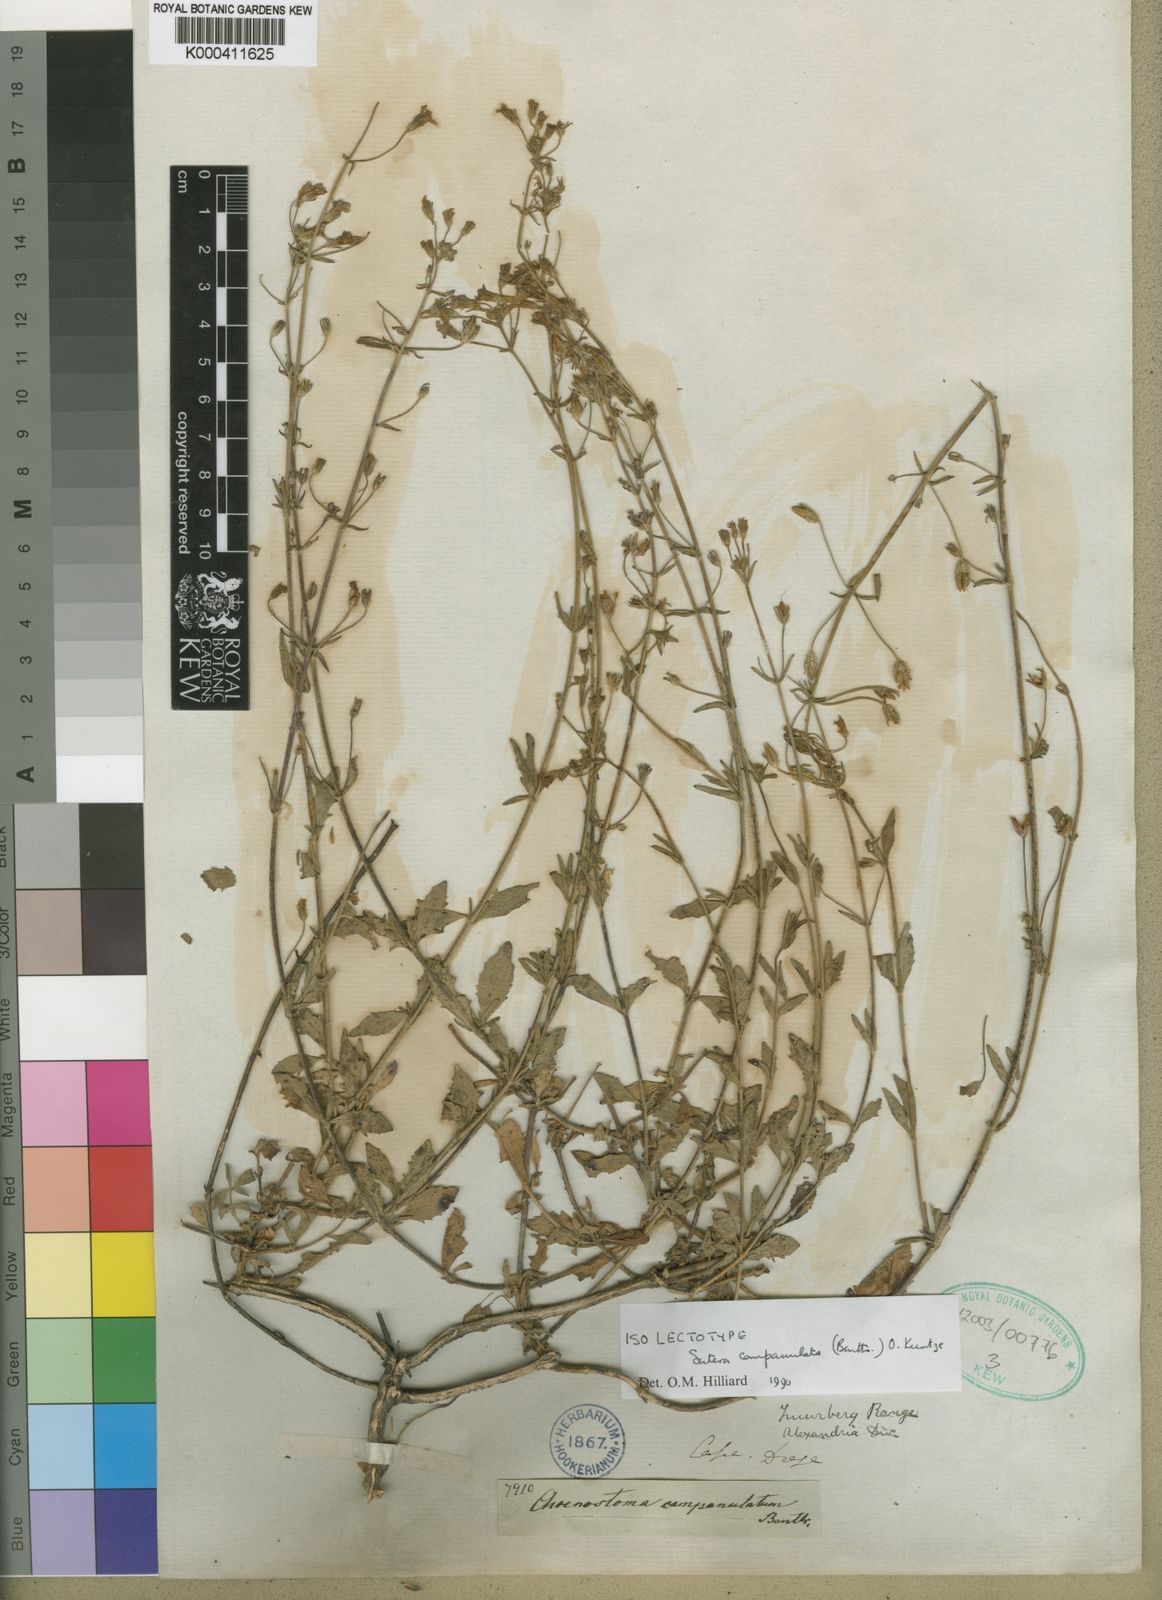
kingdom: Plantae
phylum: Tracheophyta
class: Magnoliopsida
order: Lamiales
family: Scrophulariaceae
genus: Chaenostoma
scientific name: Chaenostoma campanulatum
